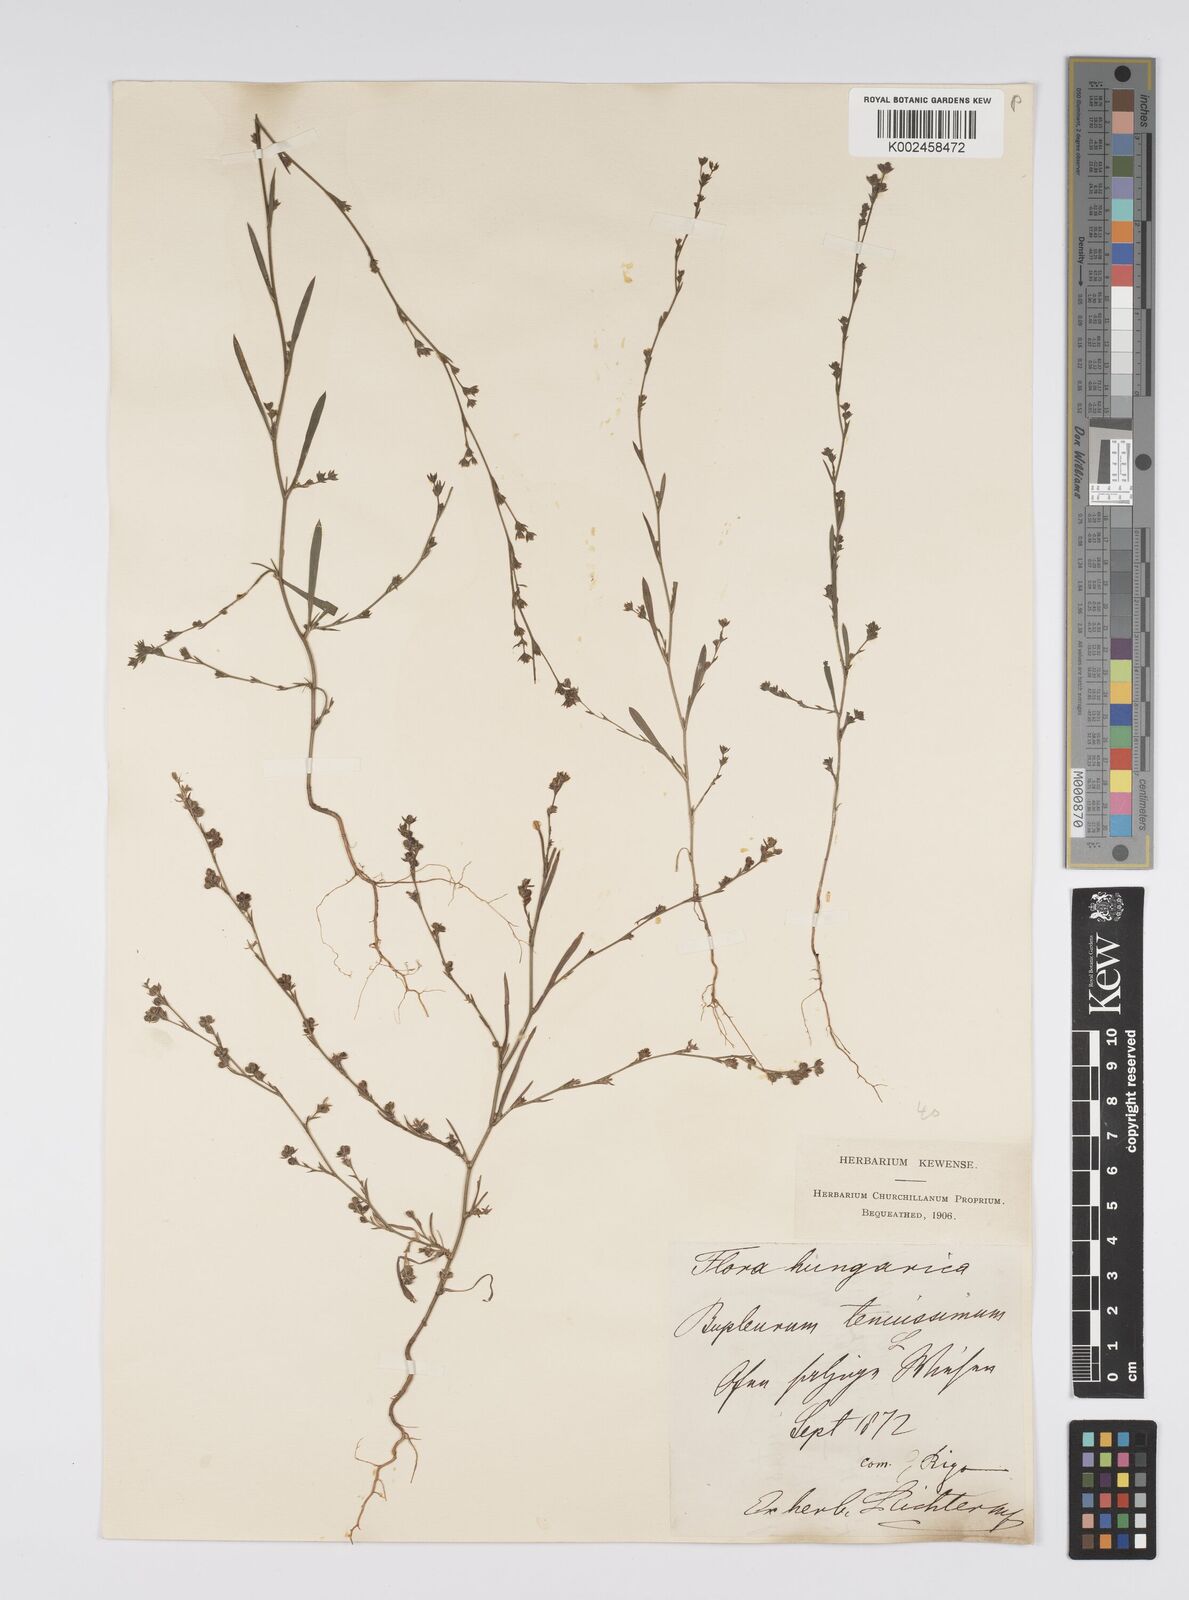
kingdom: Plantae
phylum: Tracheophyta
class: Magnoliopsida
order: Apiales
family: Apiaceae
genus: Bupleurum
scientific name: Bupleurum tenuissimum
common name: Slender hare's-ear
